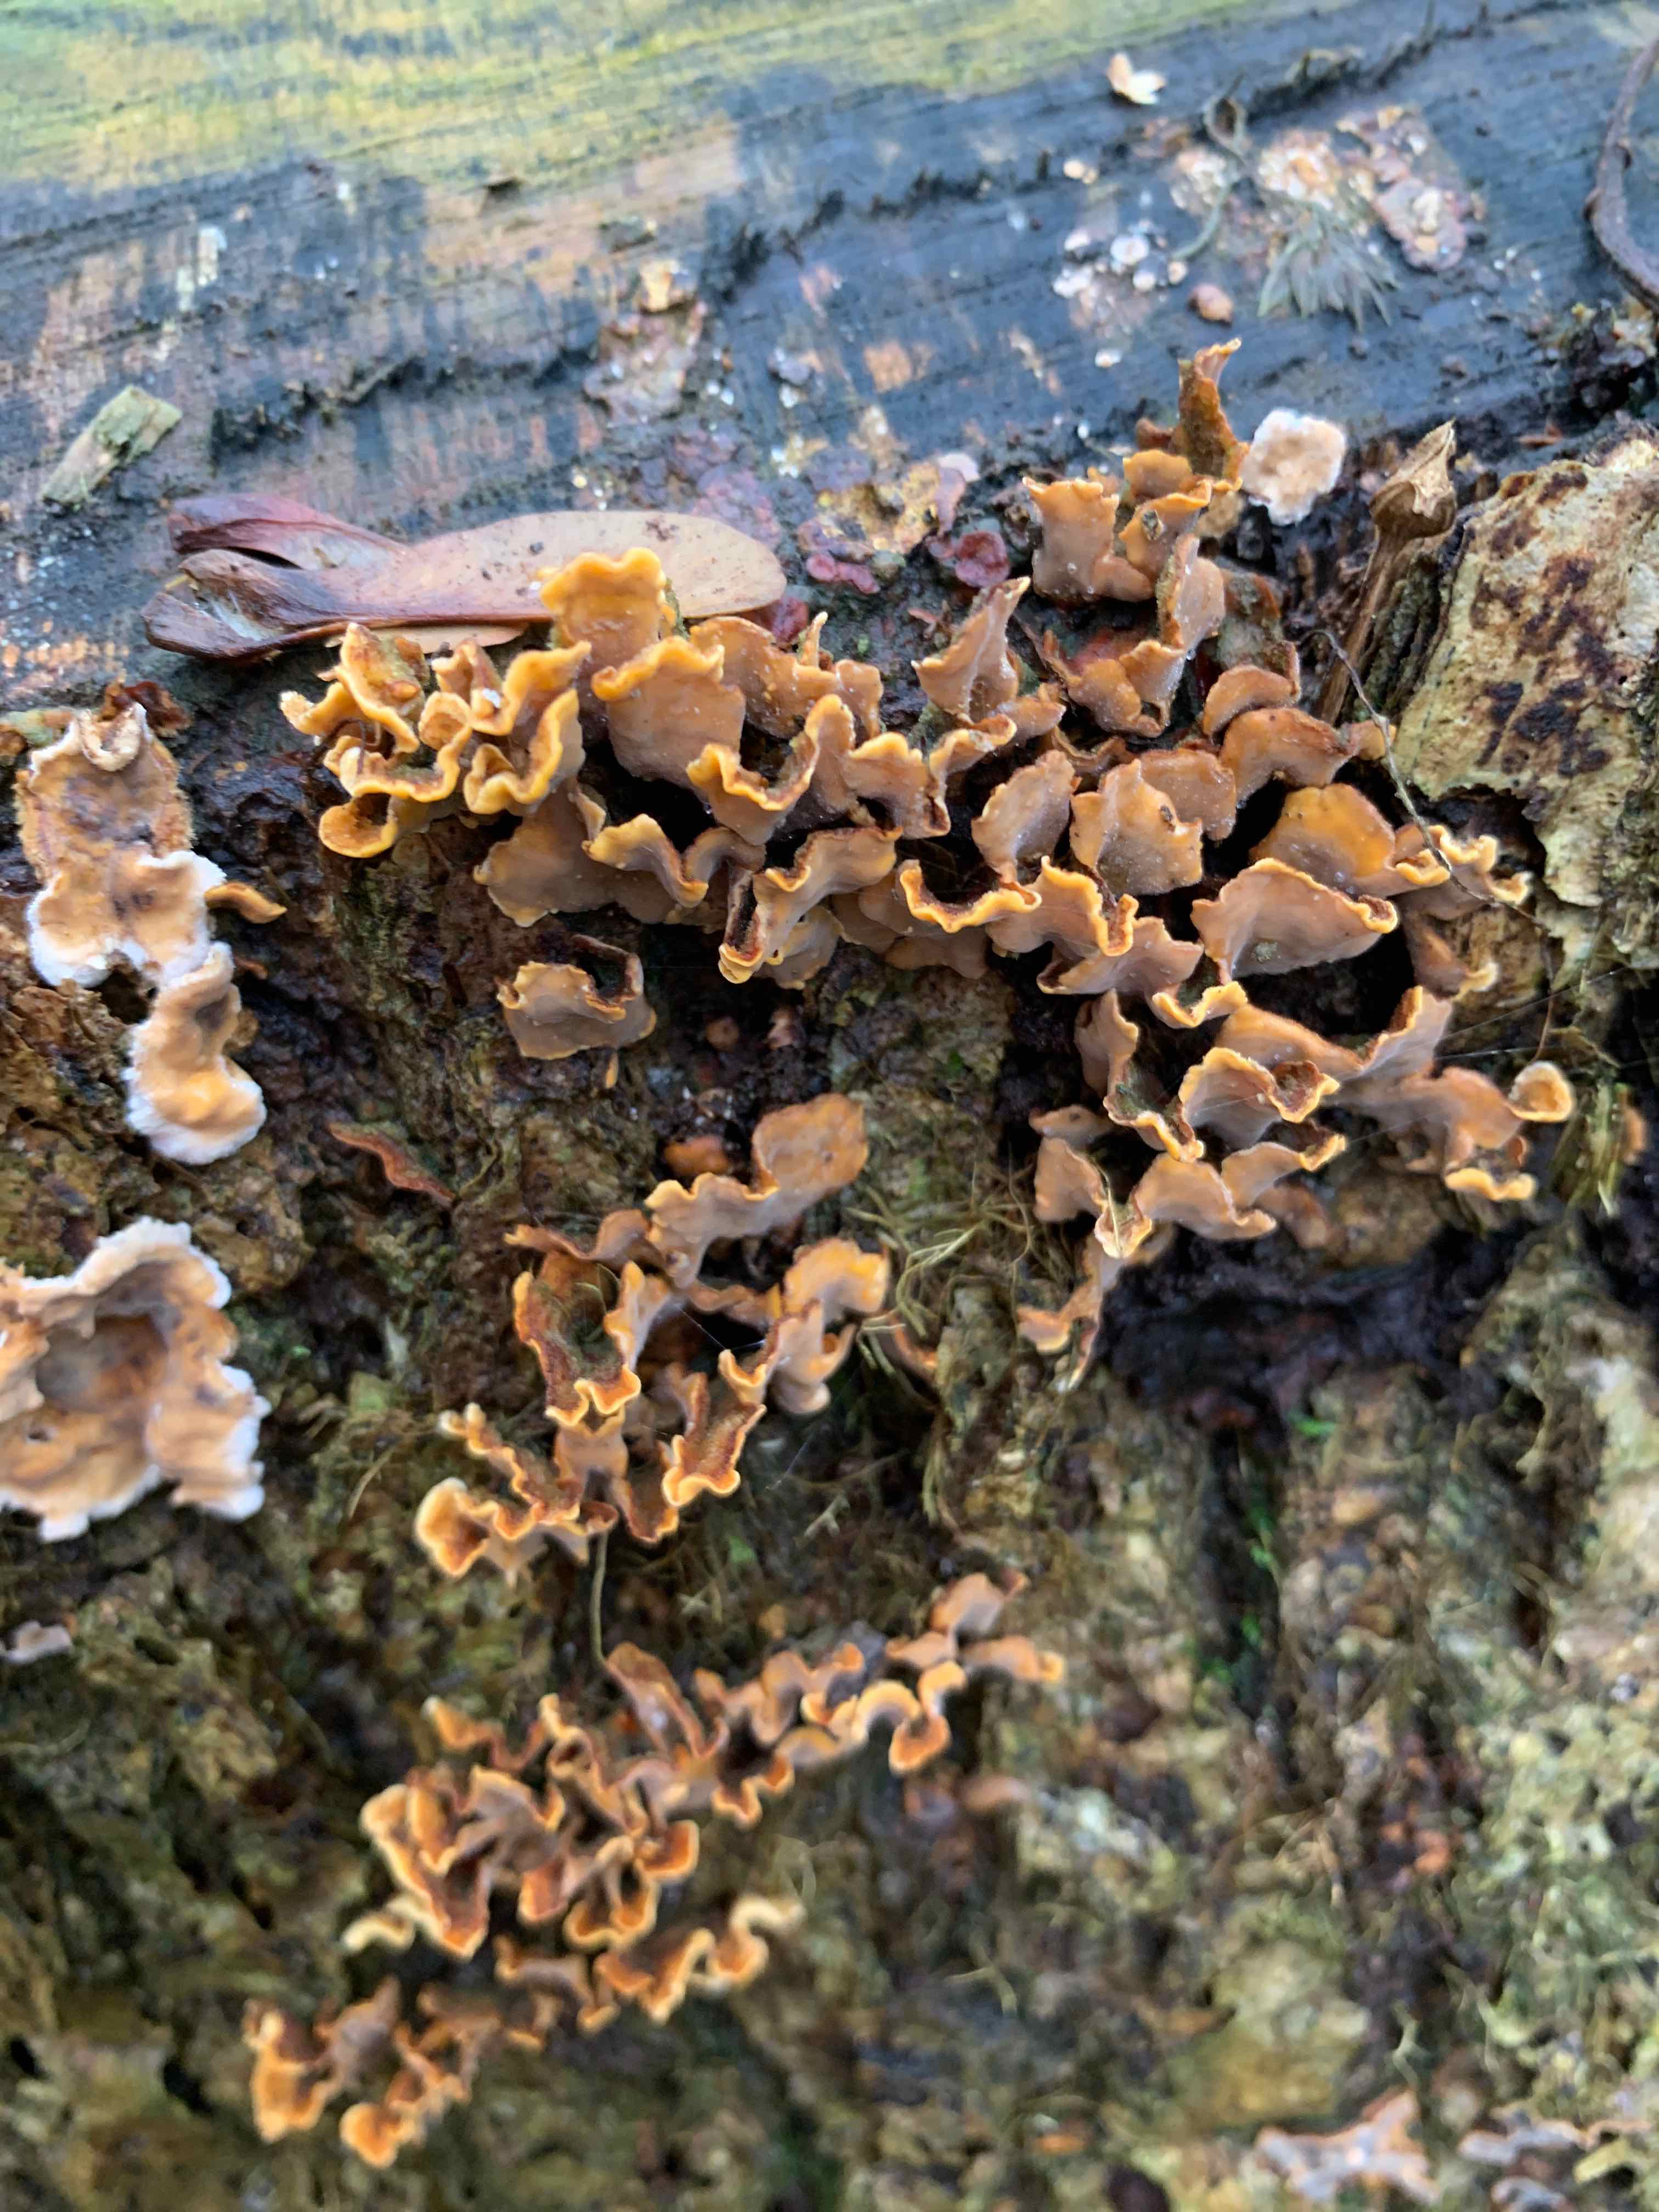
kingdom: Fungi
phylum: Basidiomycota
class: Agaricomycetes
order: Russulales
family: Stereaceae
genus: Stereum
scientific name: Stereum hirsutum
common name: håret lædersvamp
